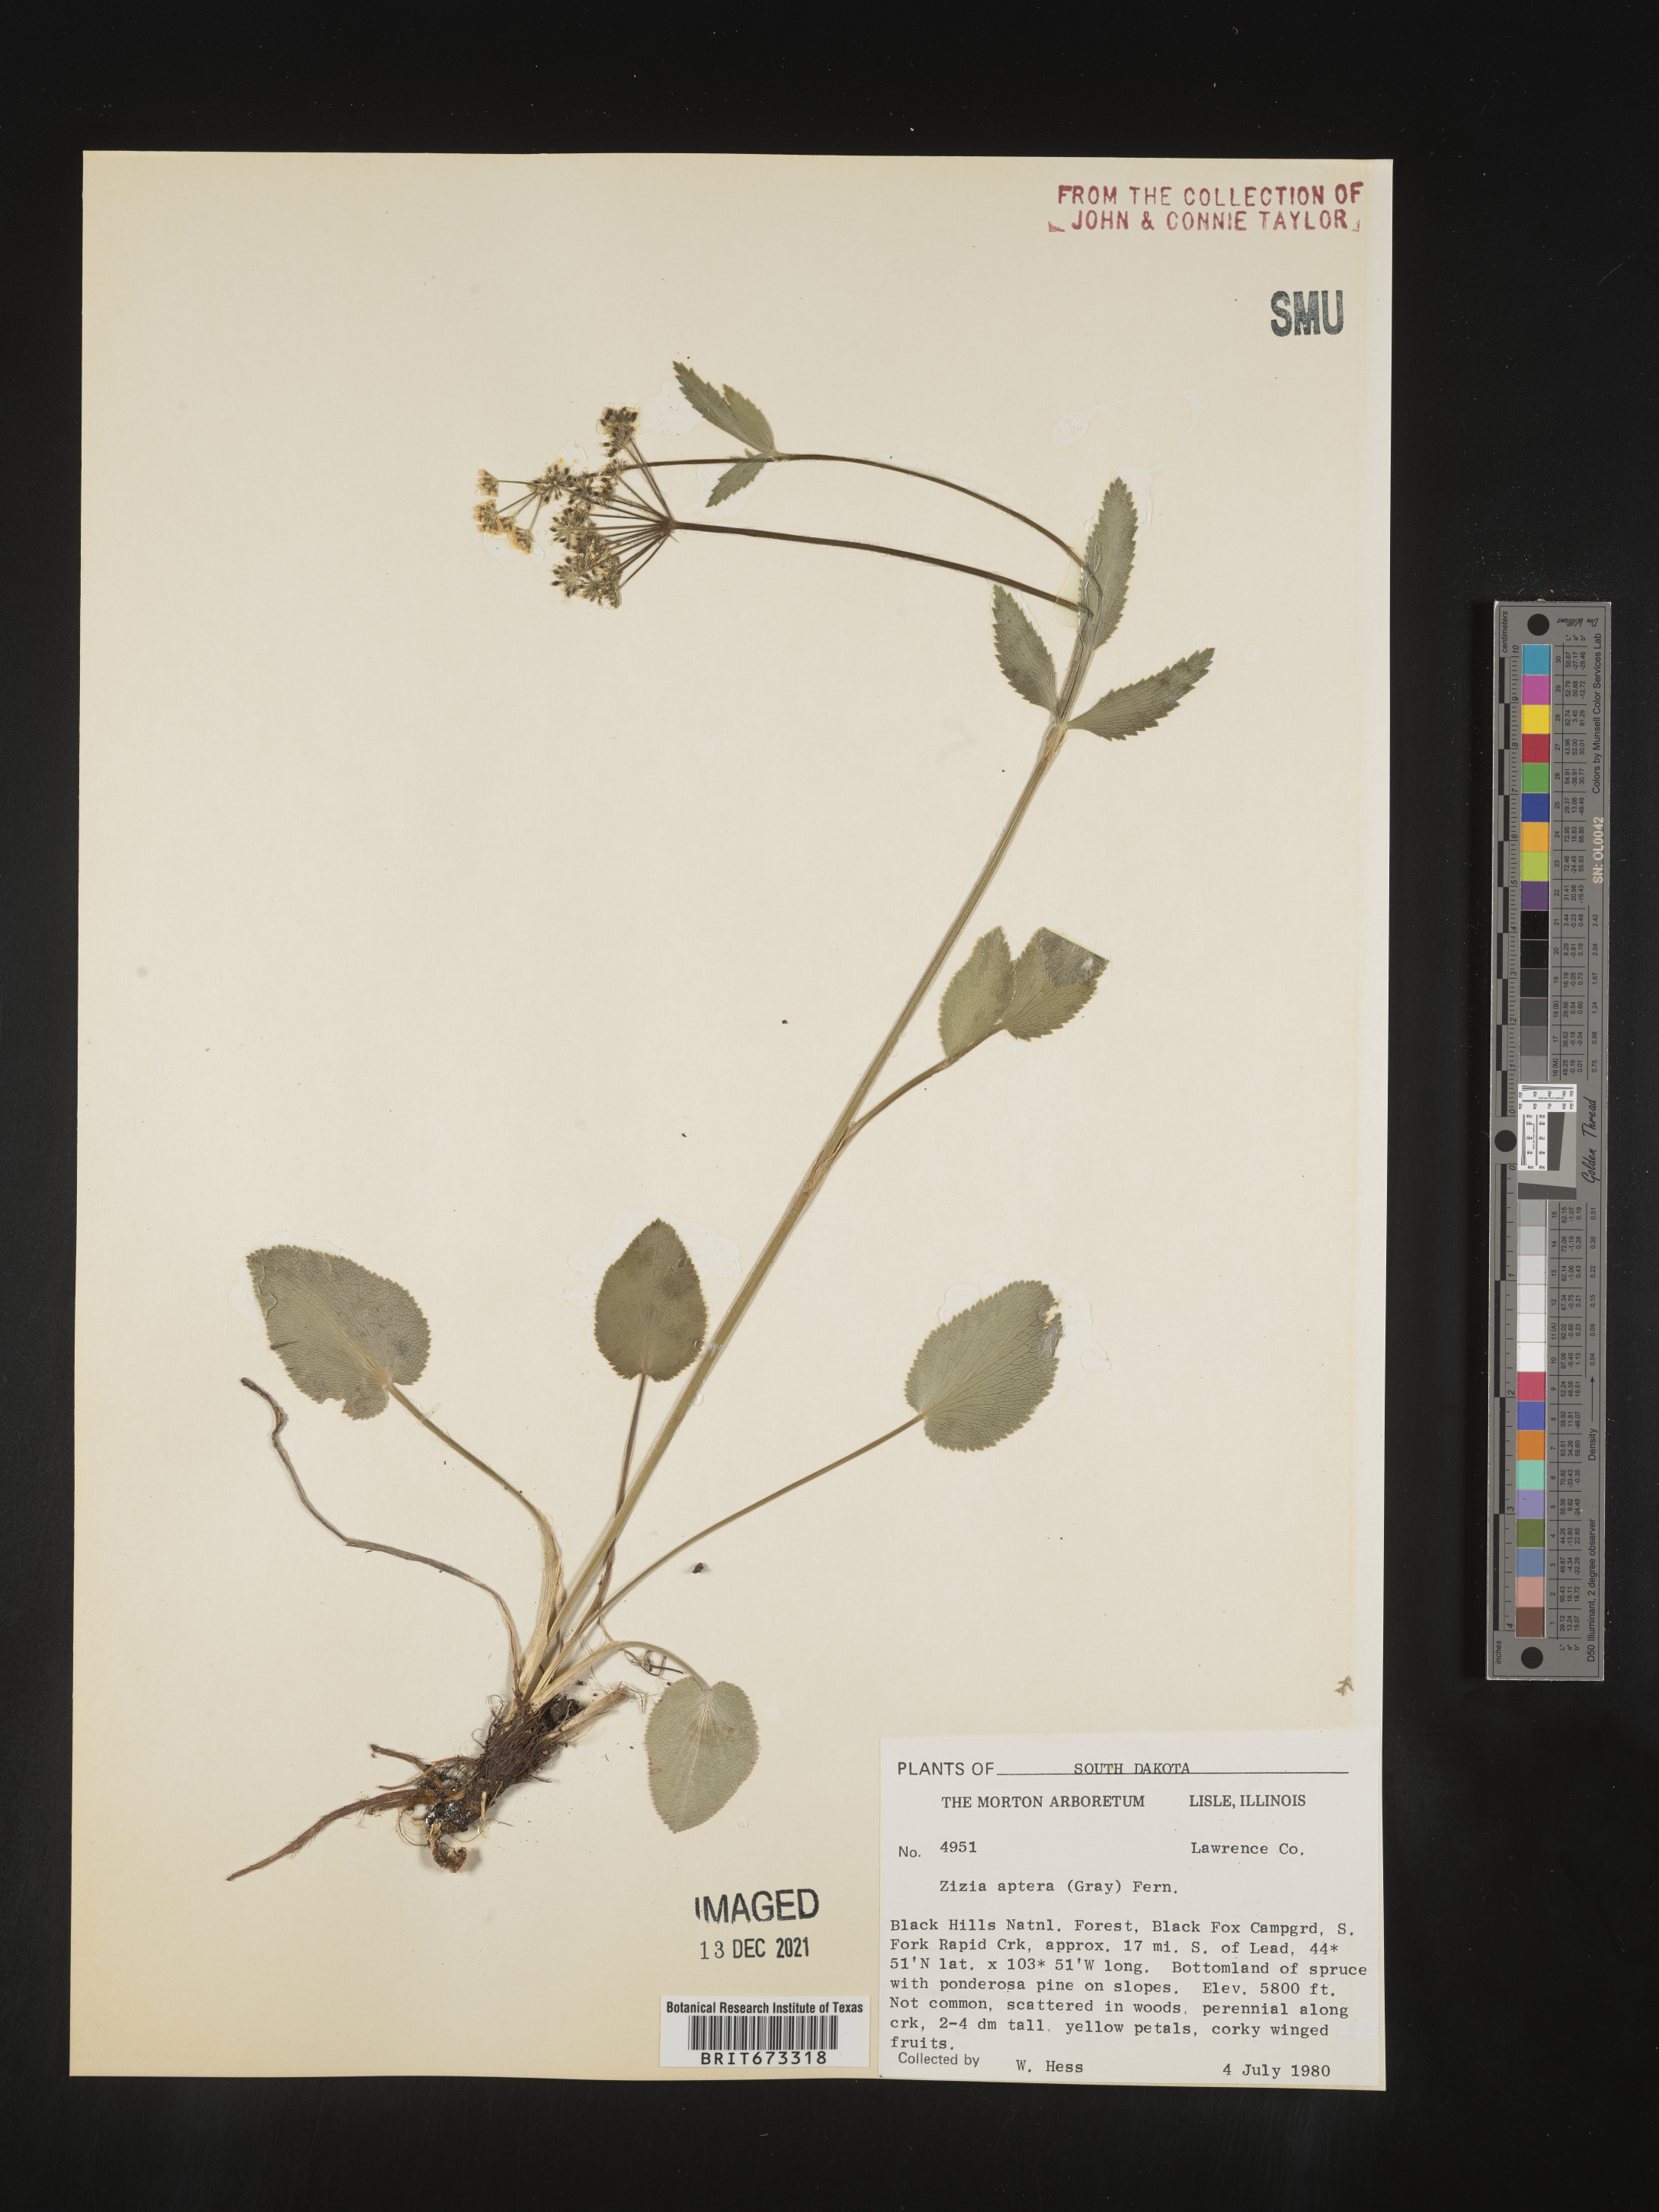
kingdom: Plantae
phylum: Tracheophyta
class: Magnoliopsida
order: Apiales
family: Apiaceae
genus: Zizia
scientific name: Zizia aptera
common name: Heart-leaved alexanders
